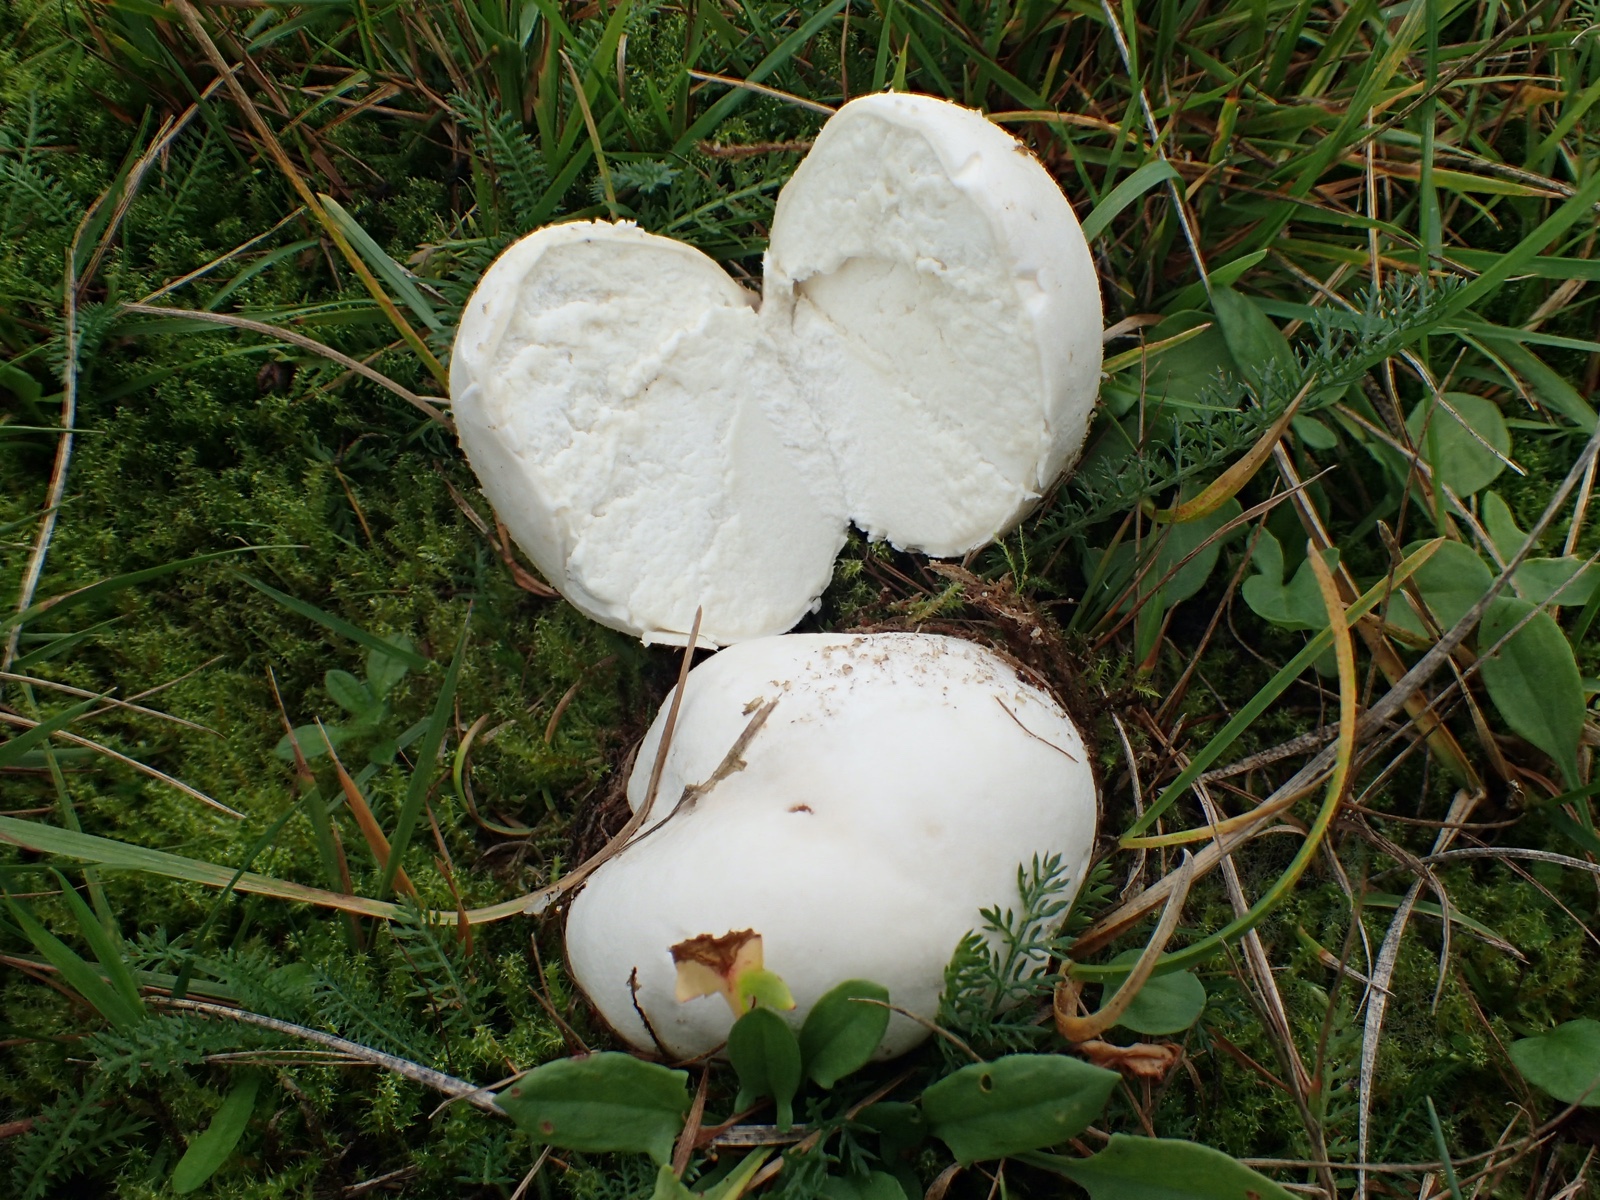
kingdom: Fungi
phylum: Basidiomycota
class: Agaricomycetes
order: Agaricales
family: Lycoperdaceae
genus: Bovista
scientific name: Bovista
